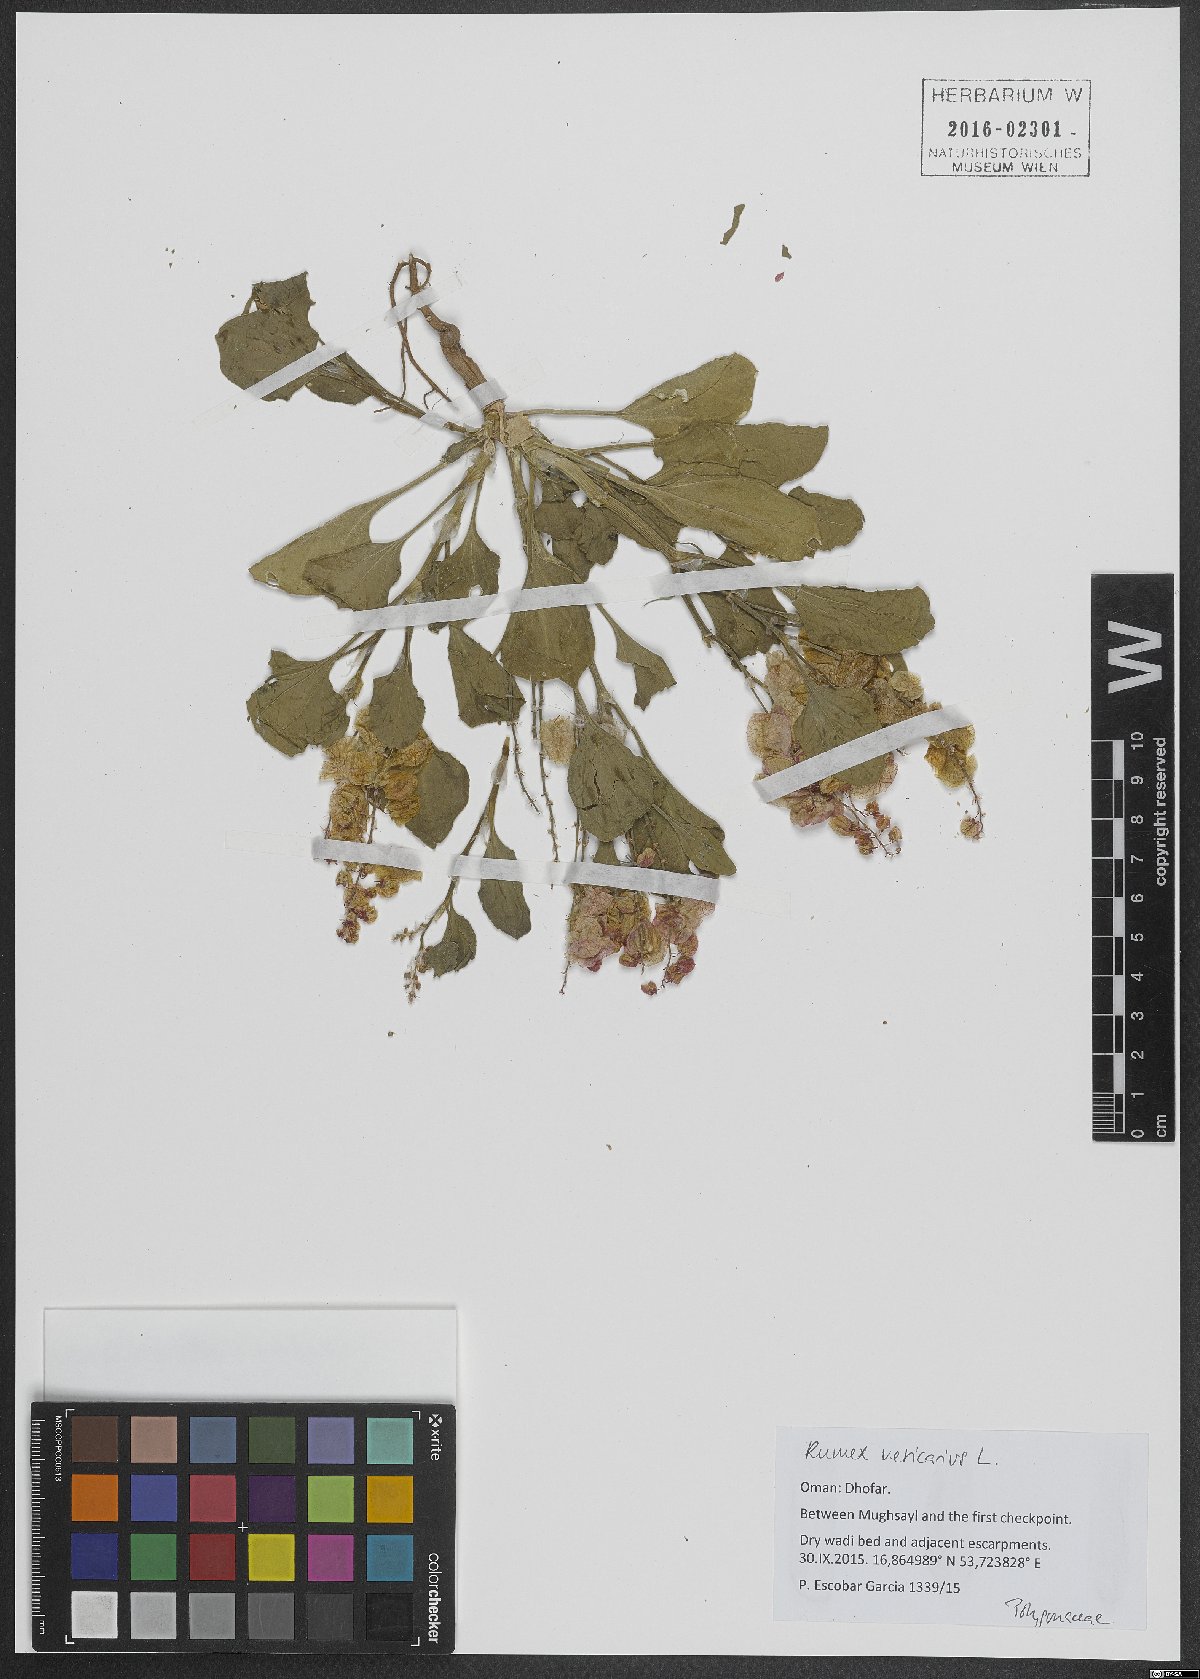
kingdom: Plantae
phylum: Tracheophyta
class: Magnoliopsida
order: Caryophyllales
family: Polygonaceae
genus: Rumex
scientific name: Rumex vesicarius
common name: Bladder dock
